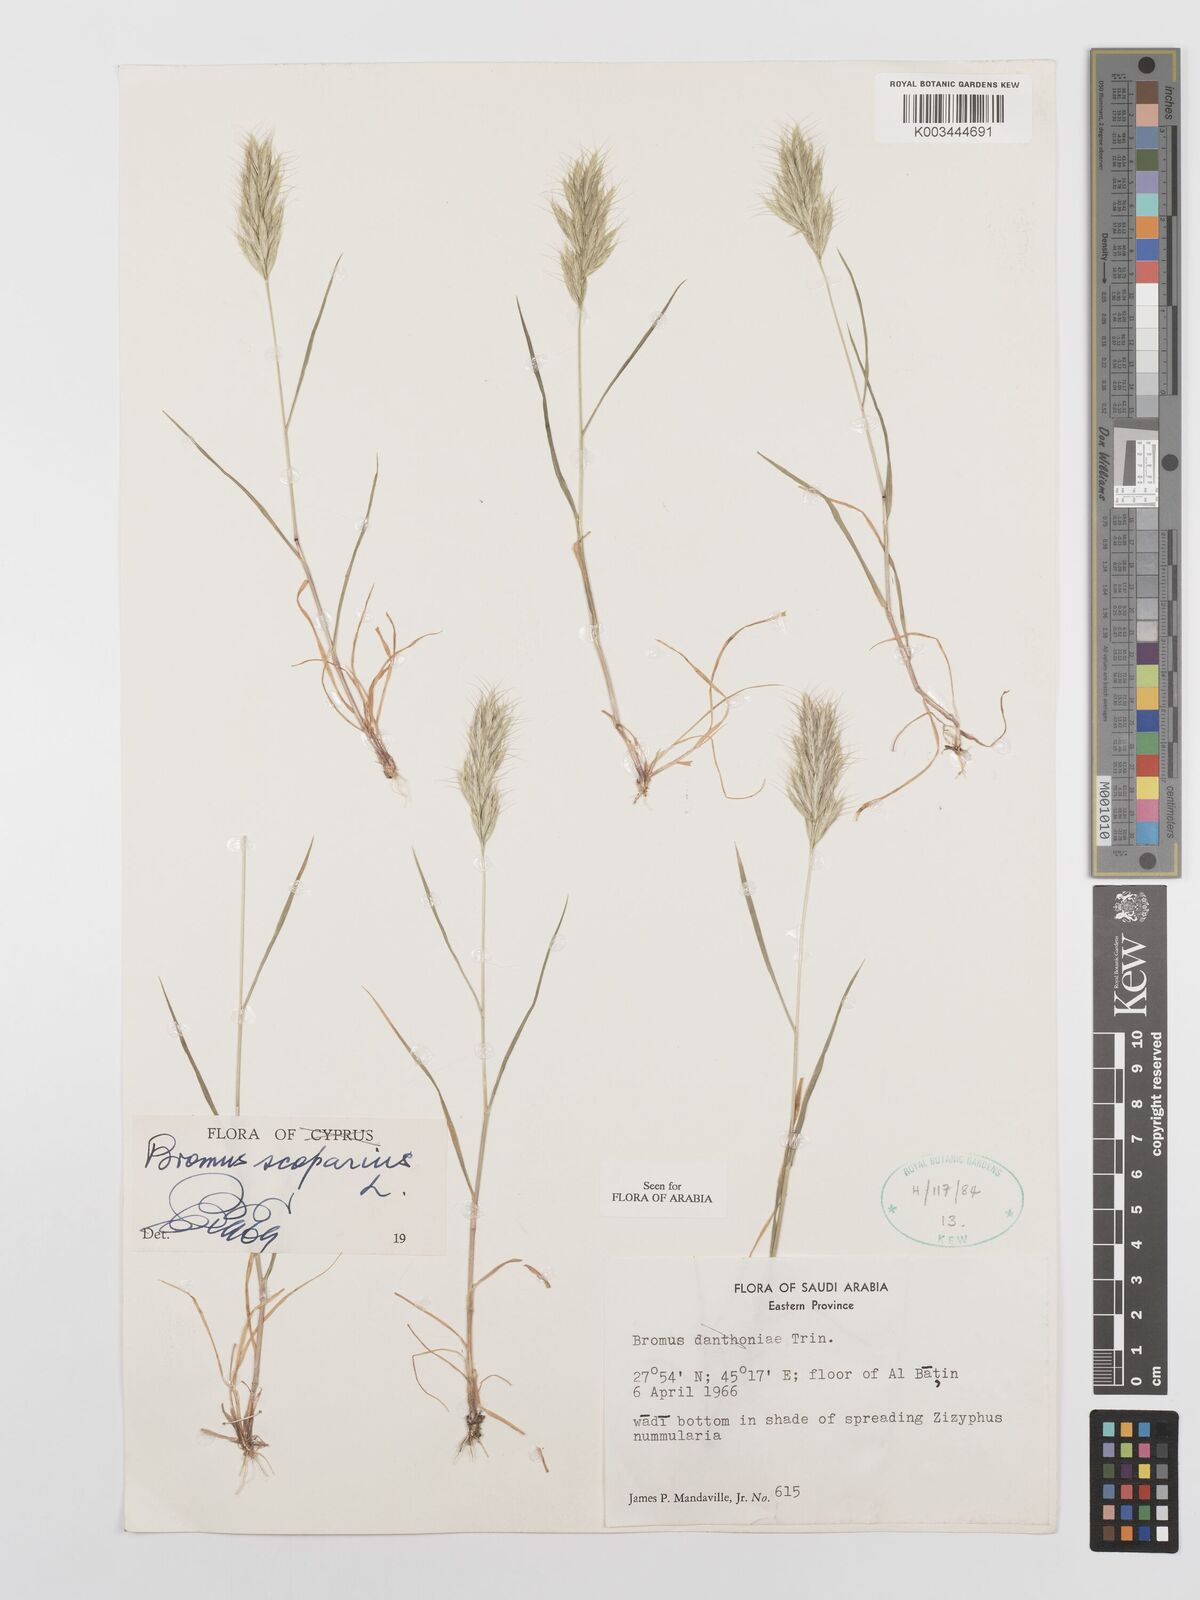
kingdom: Plantae
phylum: Tracheophyta
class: Liliopsida
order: Poales
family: Poaceae
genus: Bromus
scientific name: Bromus scoparius
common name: Broom brome
